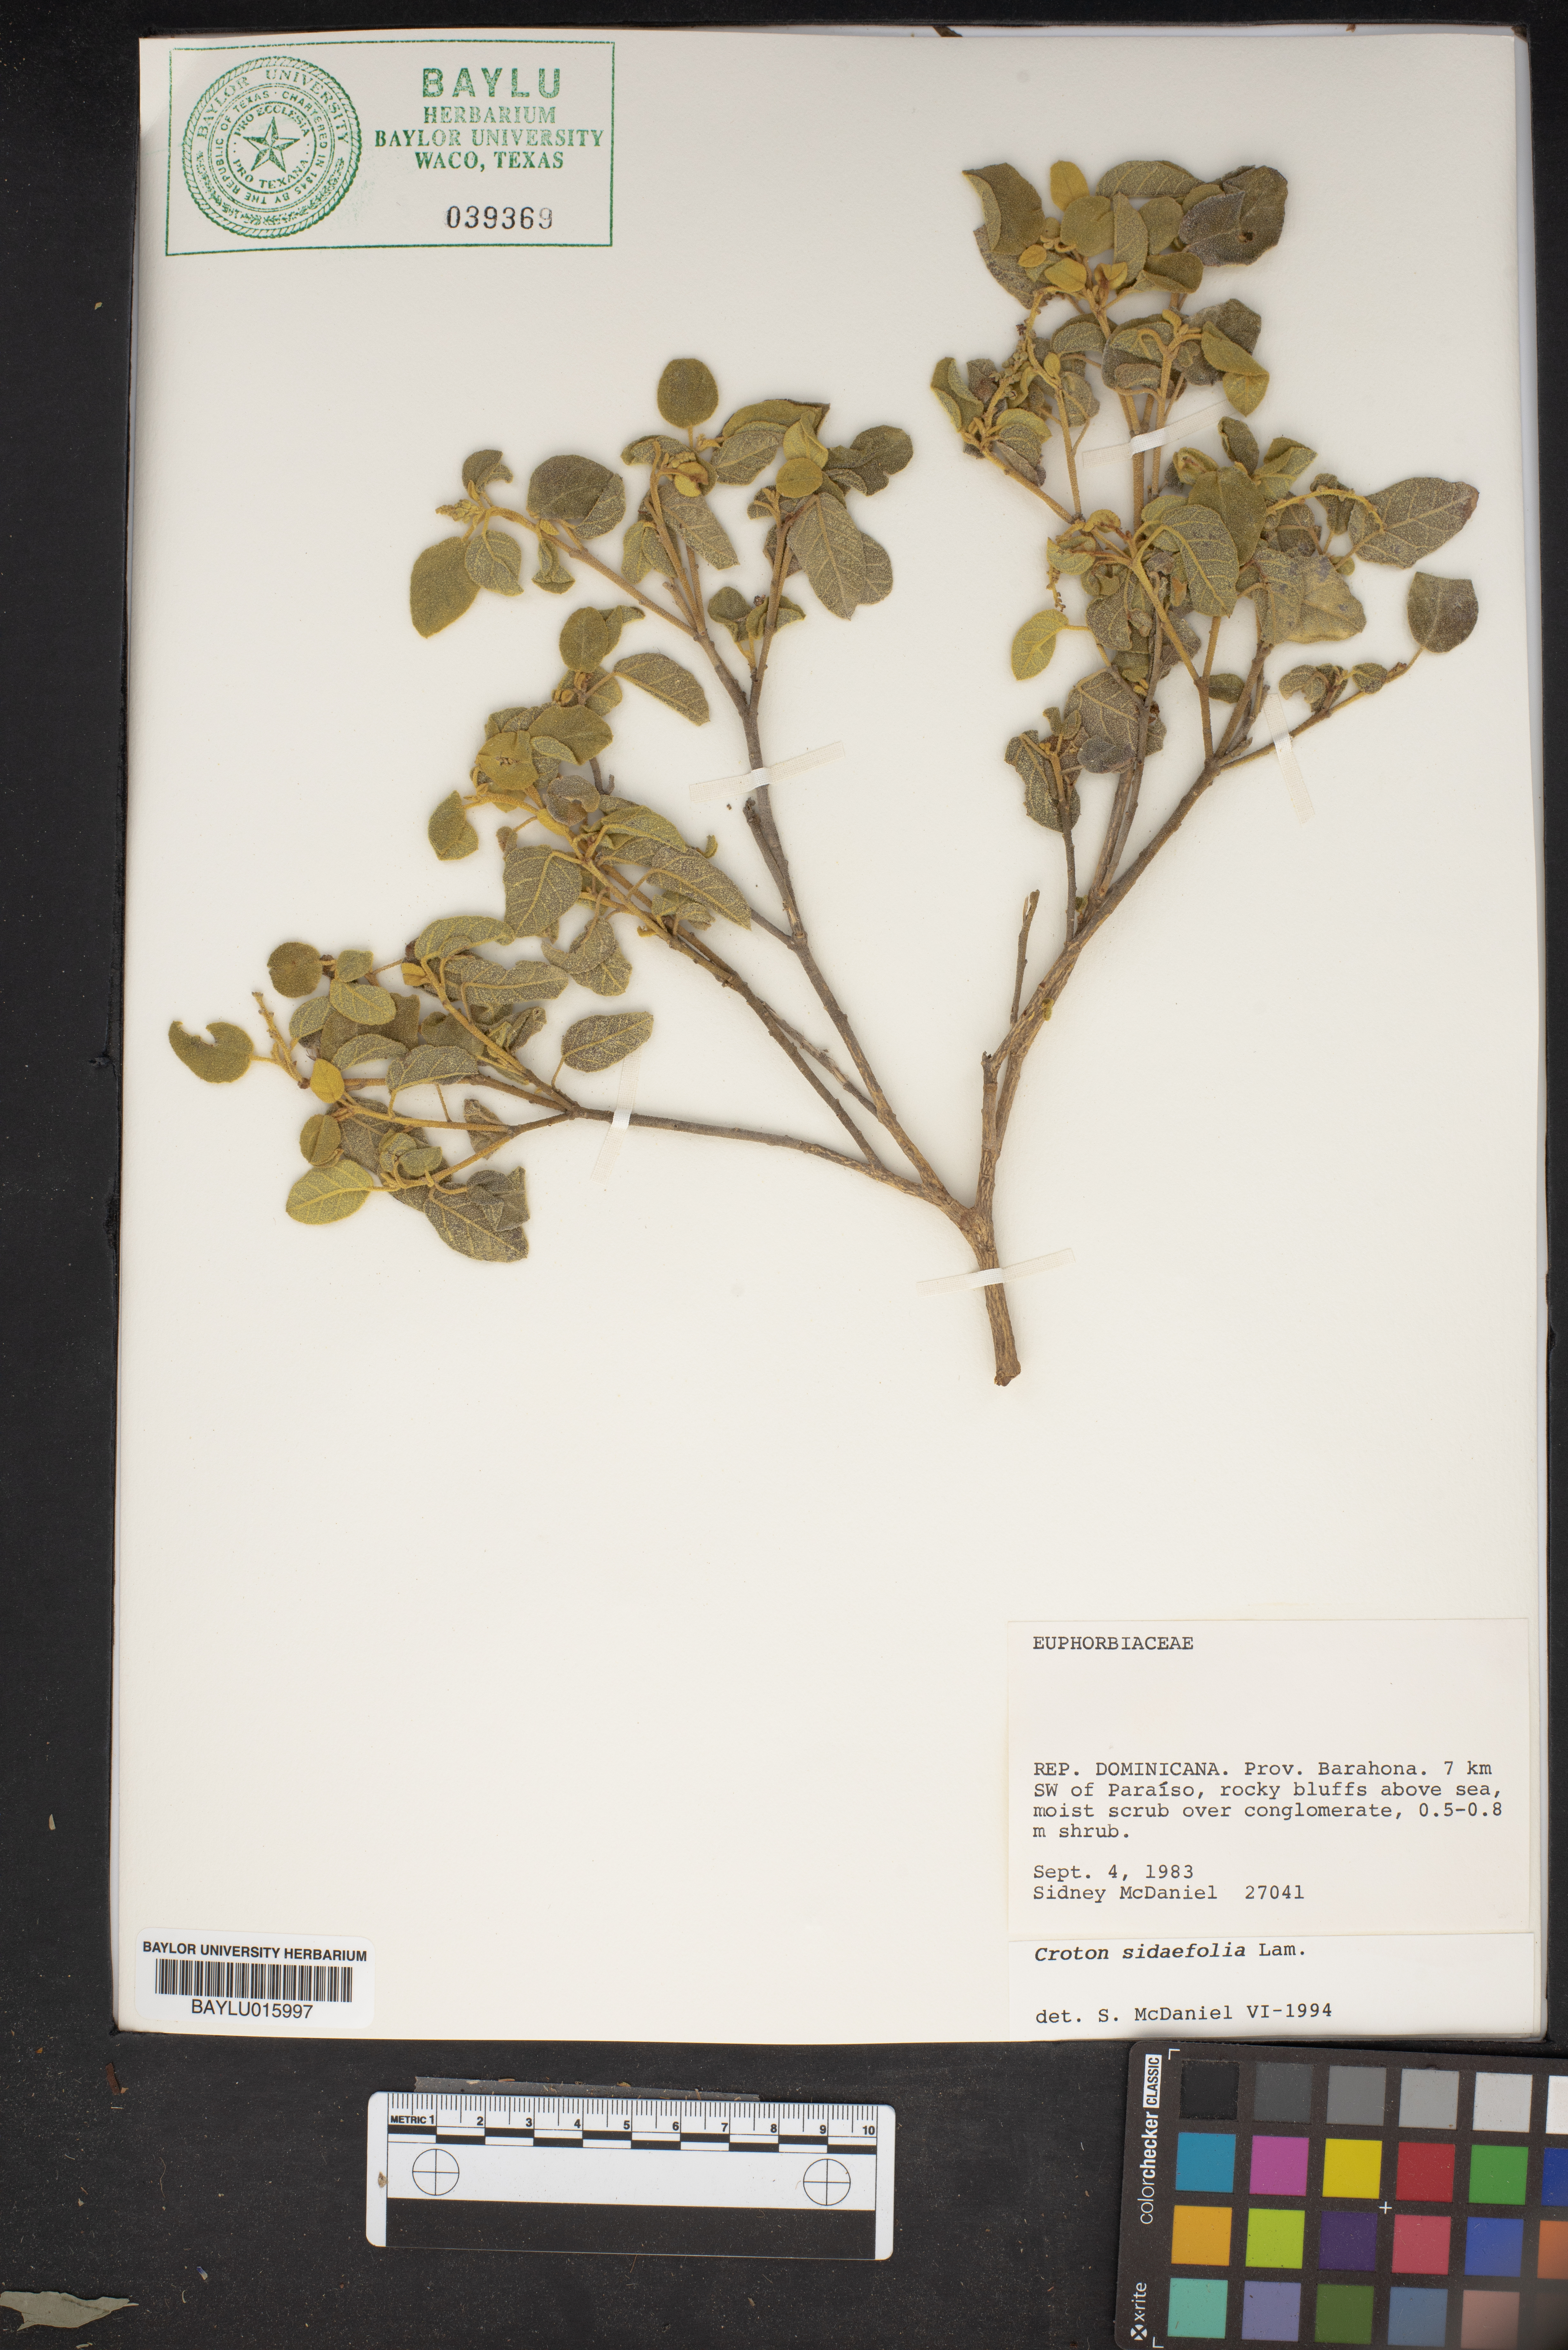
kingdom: Plantae
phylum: Tracheophyta
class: Magnoliopsida
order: Malpighiales
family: Euphorbiaceae
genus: Croton
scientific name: Croton sidifolius
